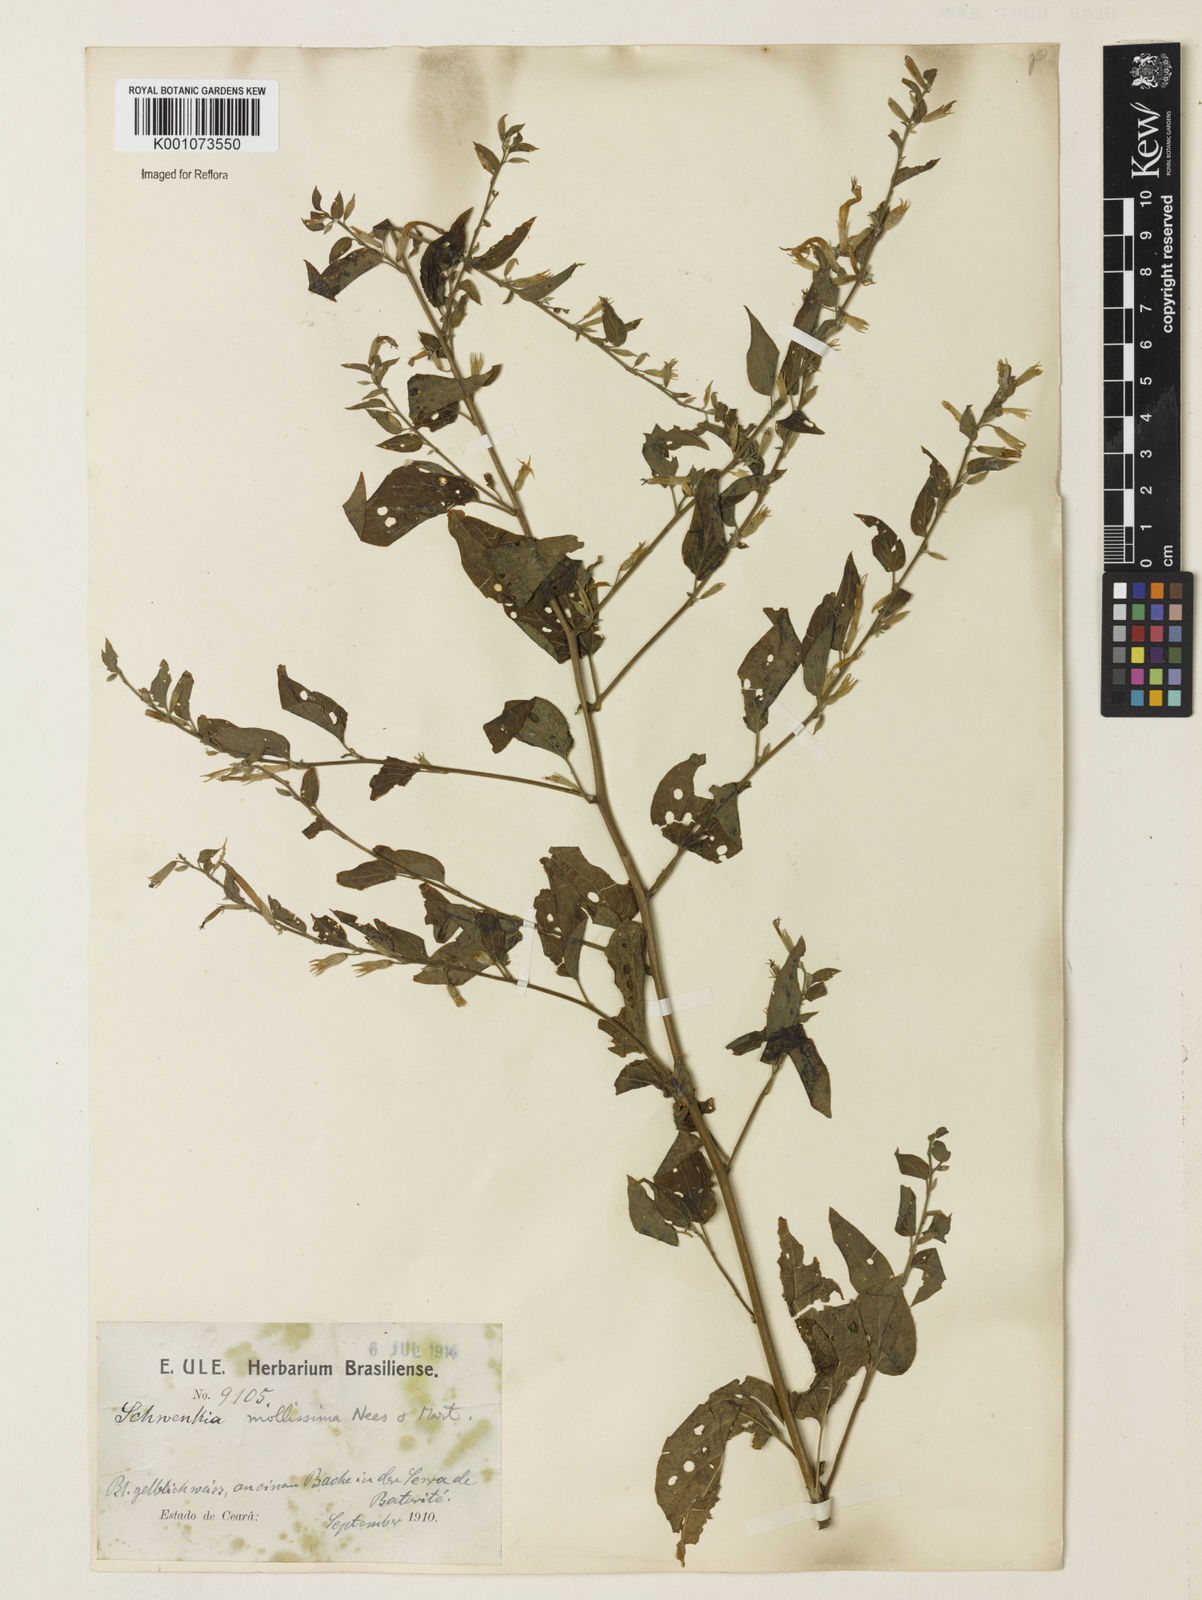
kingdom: Plantae
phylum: Tracheophyta
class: Magnoliopsida
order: Solanales
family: Solanaceae
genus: Schwenckia
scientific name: Schwenckia mollissima
